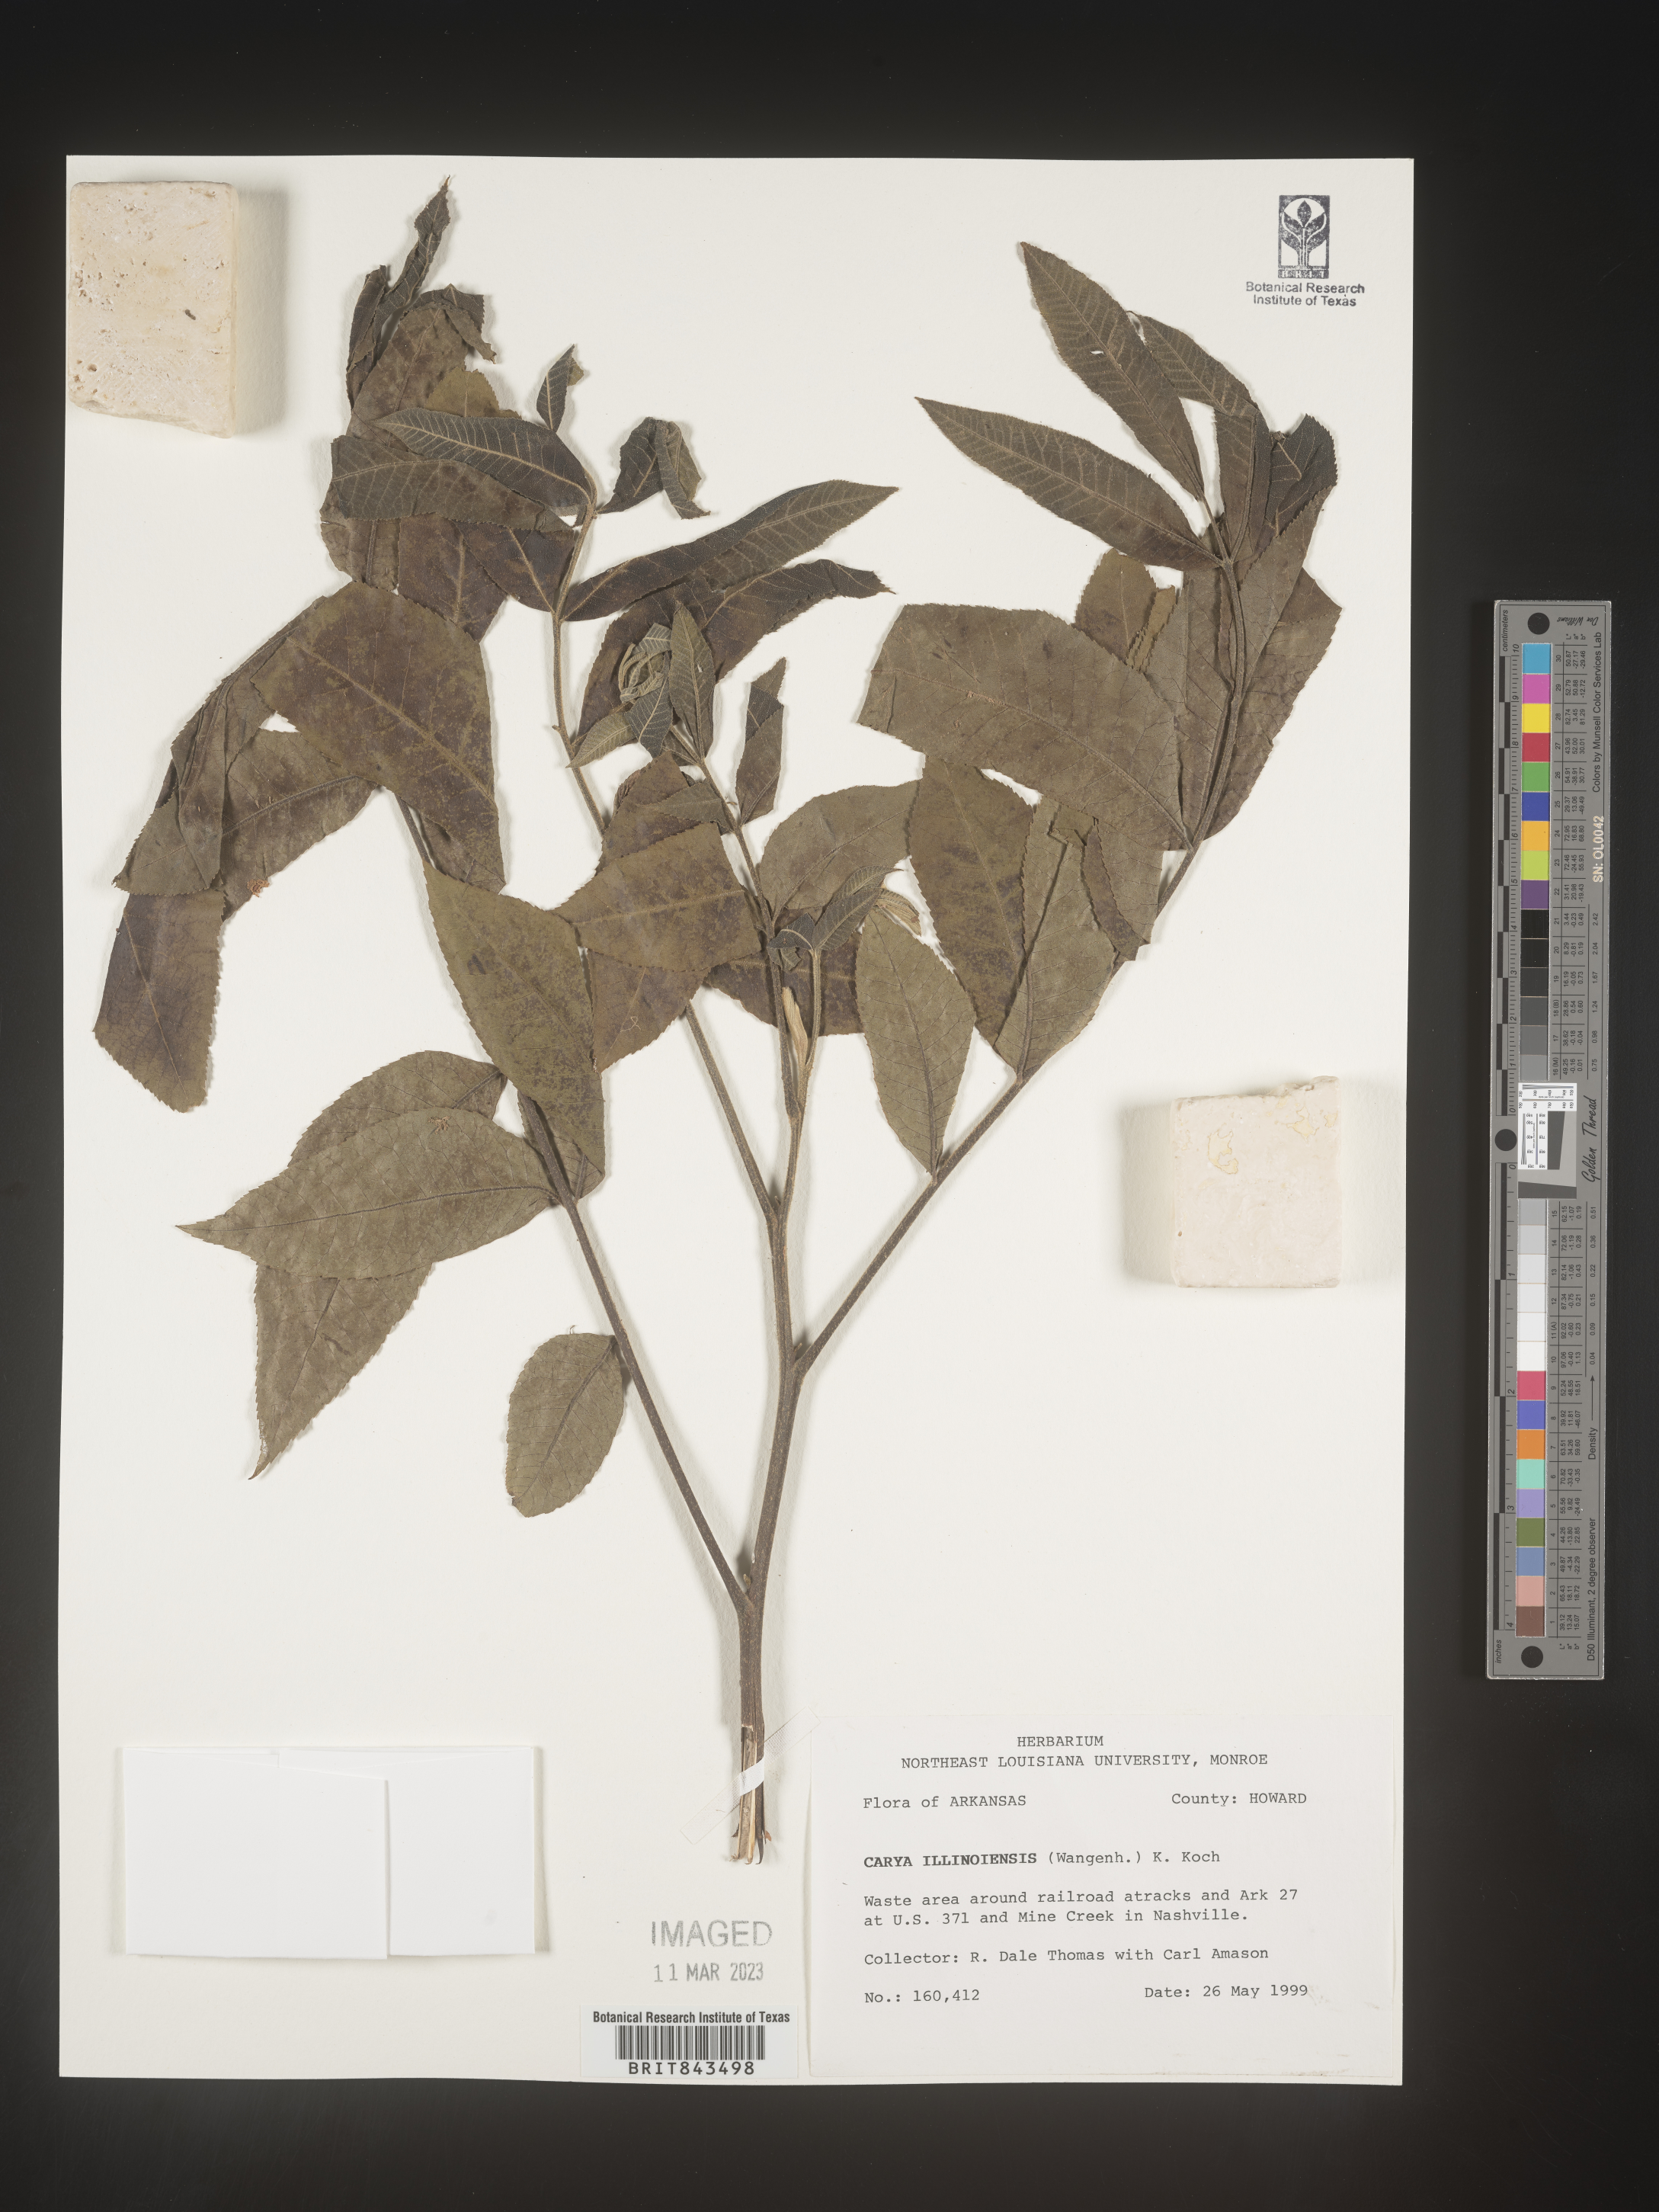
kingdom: Plantae
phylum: Tracheophyta
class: Magnoliopsida
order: Fagales
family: Juglandaceae
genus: Carya
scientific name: Carya illinoinensis
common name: Pecan
